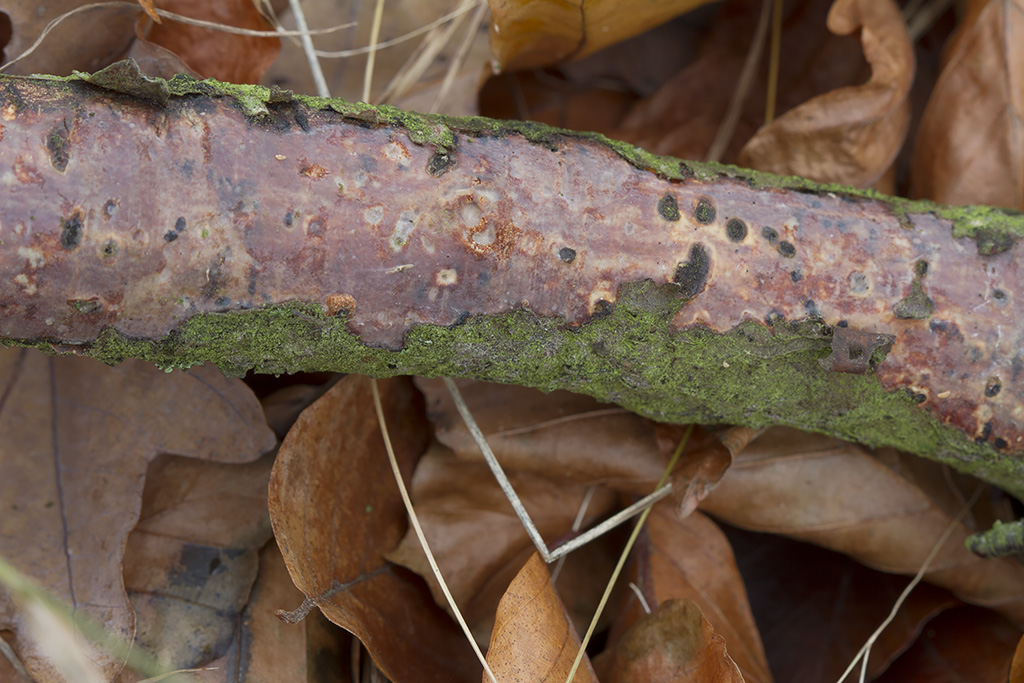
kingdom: Fungi
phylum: Basidiomycota
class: Agaricomycetes
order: Corticiales
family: Vuilleminiaceae
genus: Vuilleminia
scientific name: Vuilleminia comedens
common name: almindelig barksprænger
